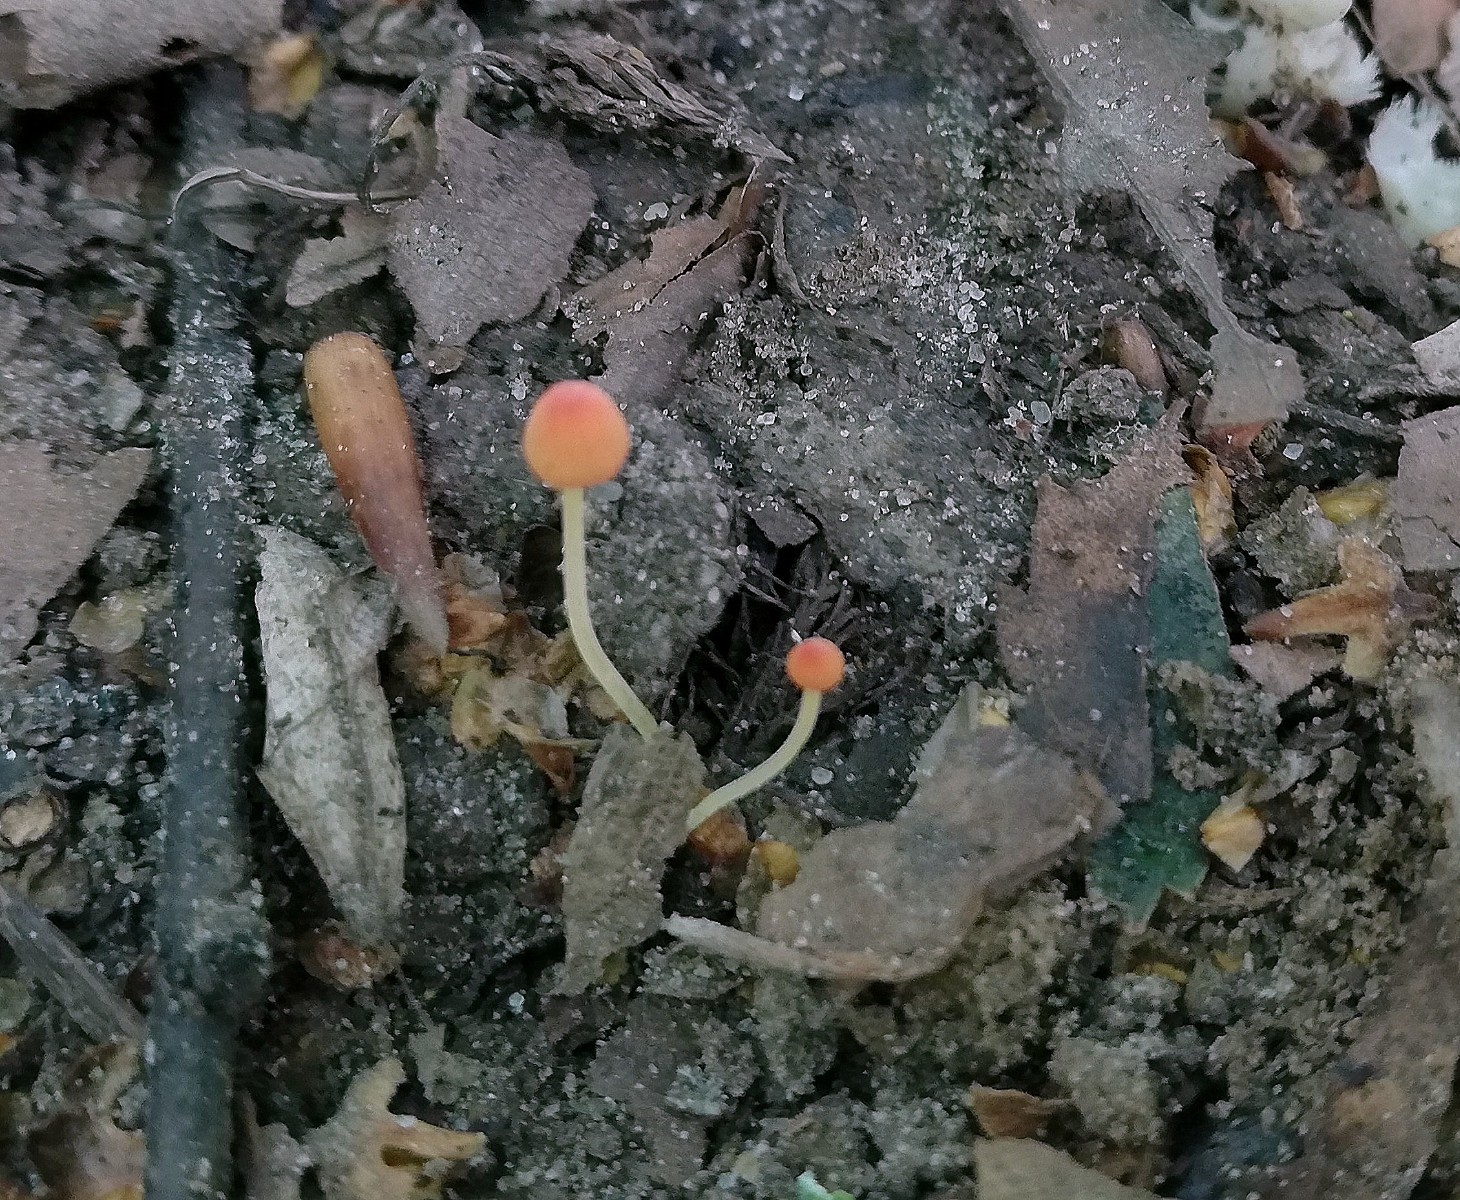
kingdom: Fungi
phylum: Basidiomycota
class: Agaricomycetes
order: Agaricales
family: Mycenaceae
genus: Mycena
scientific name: Mycena acicula
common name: orange huesvamp
